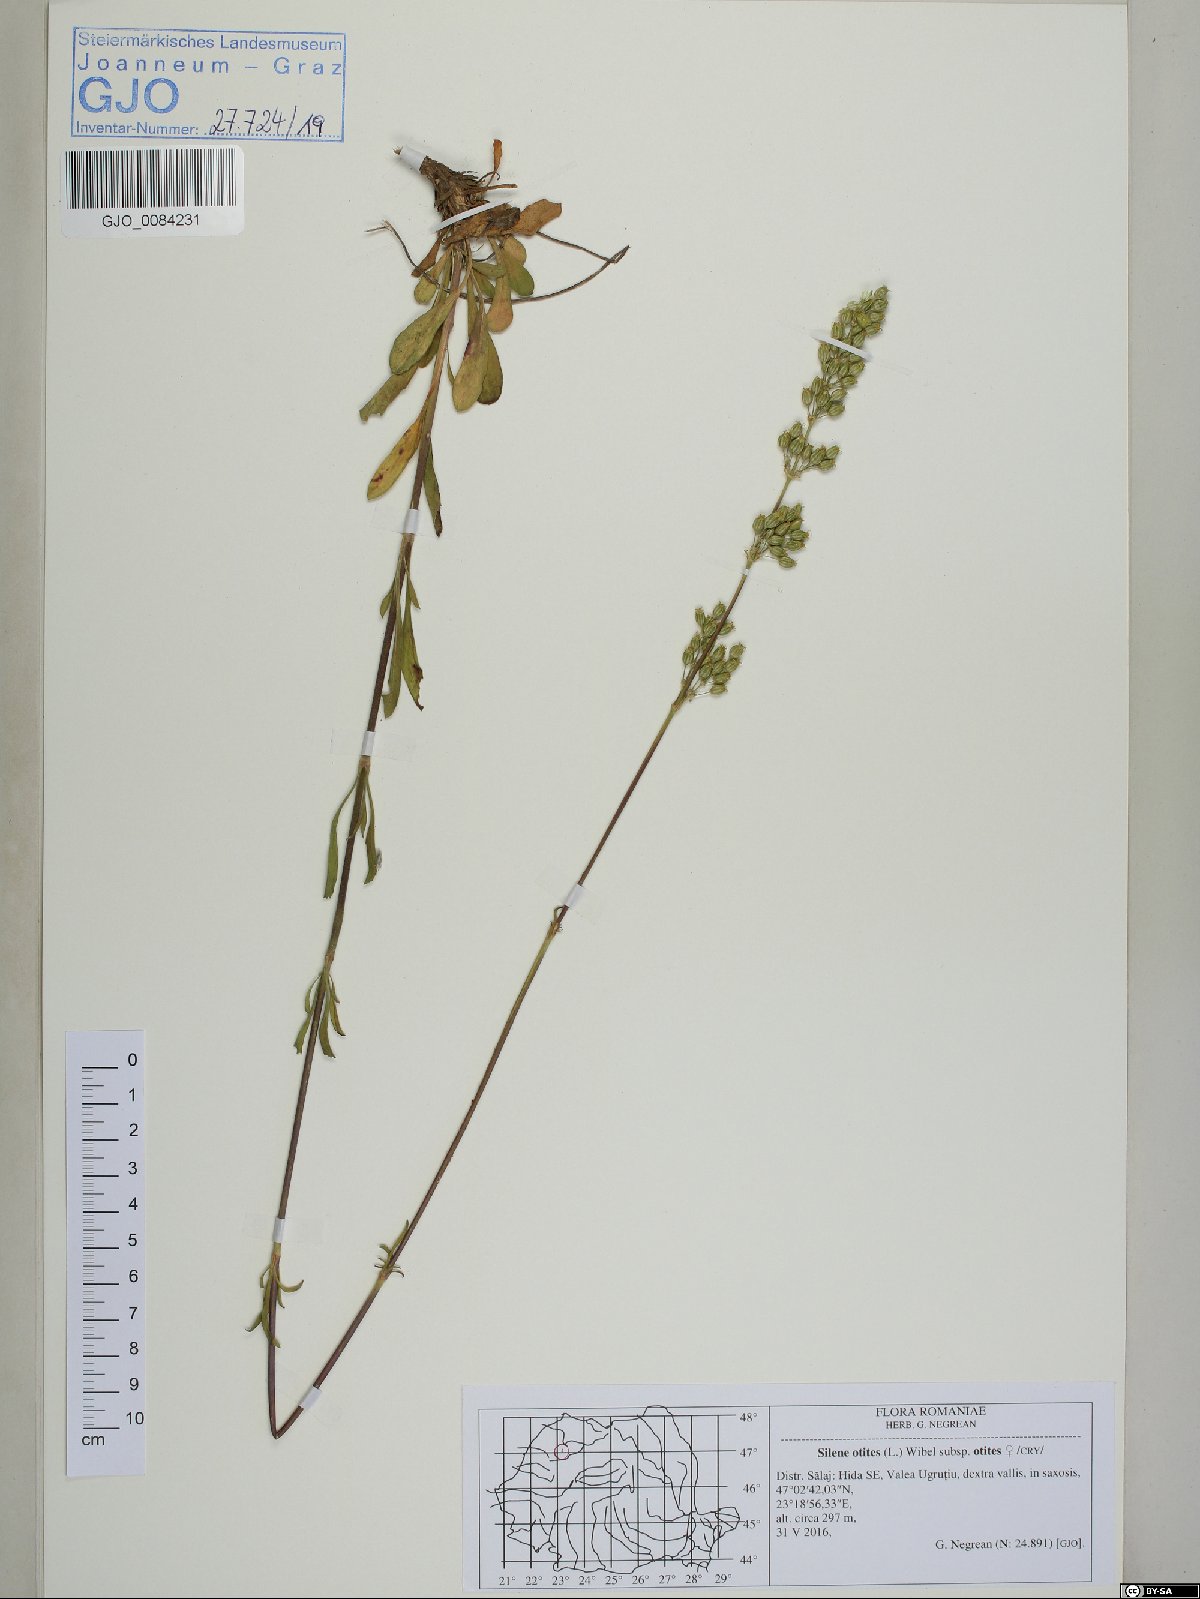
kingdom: Plantae
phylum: Tracheophyta
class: Magnoliopsida
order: Caryophyllales
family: Caryophyllaceae
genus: Silene
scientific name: Silene otites
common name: Spanish catchfly
